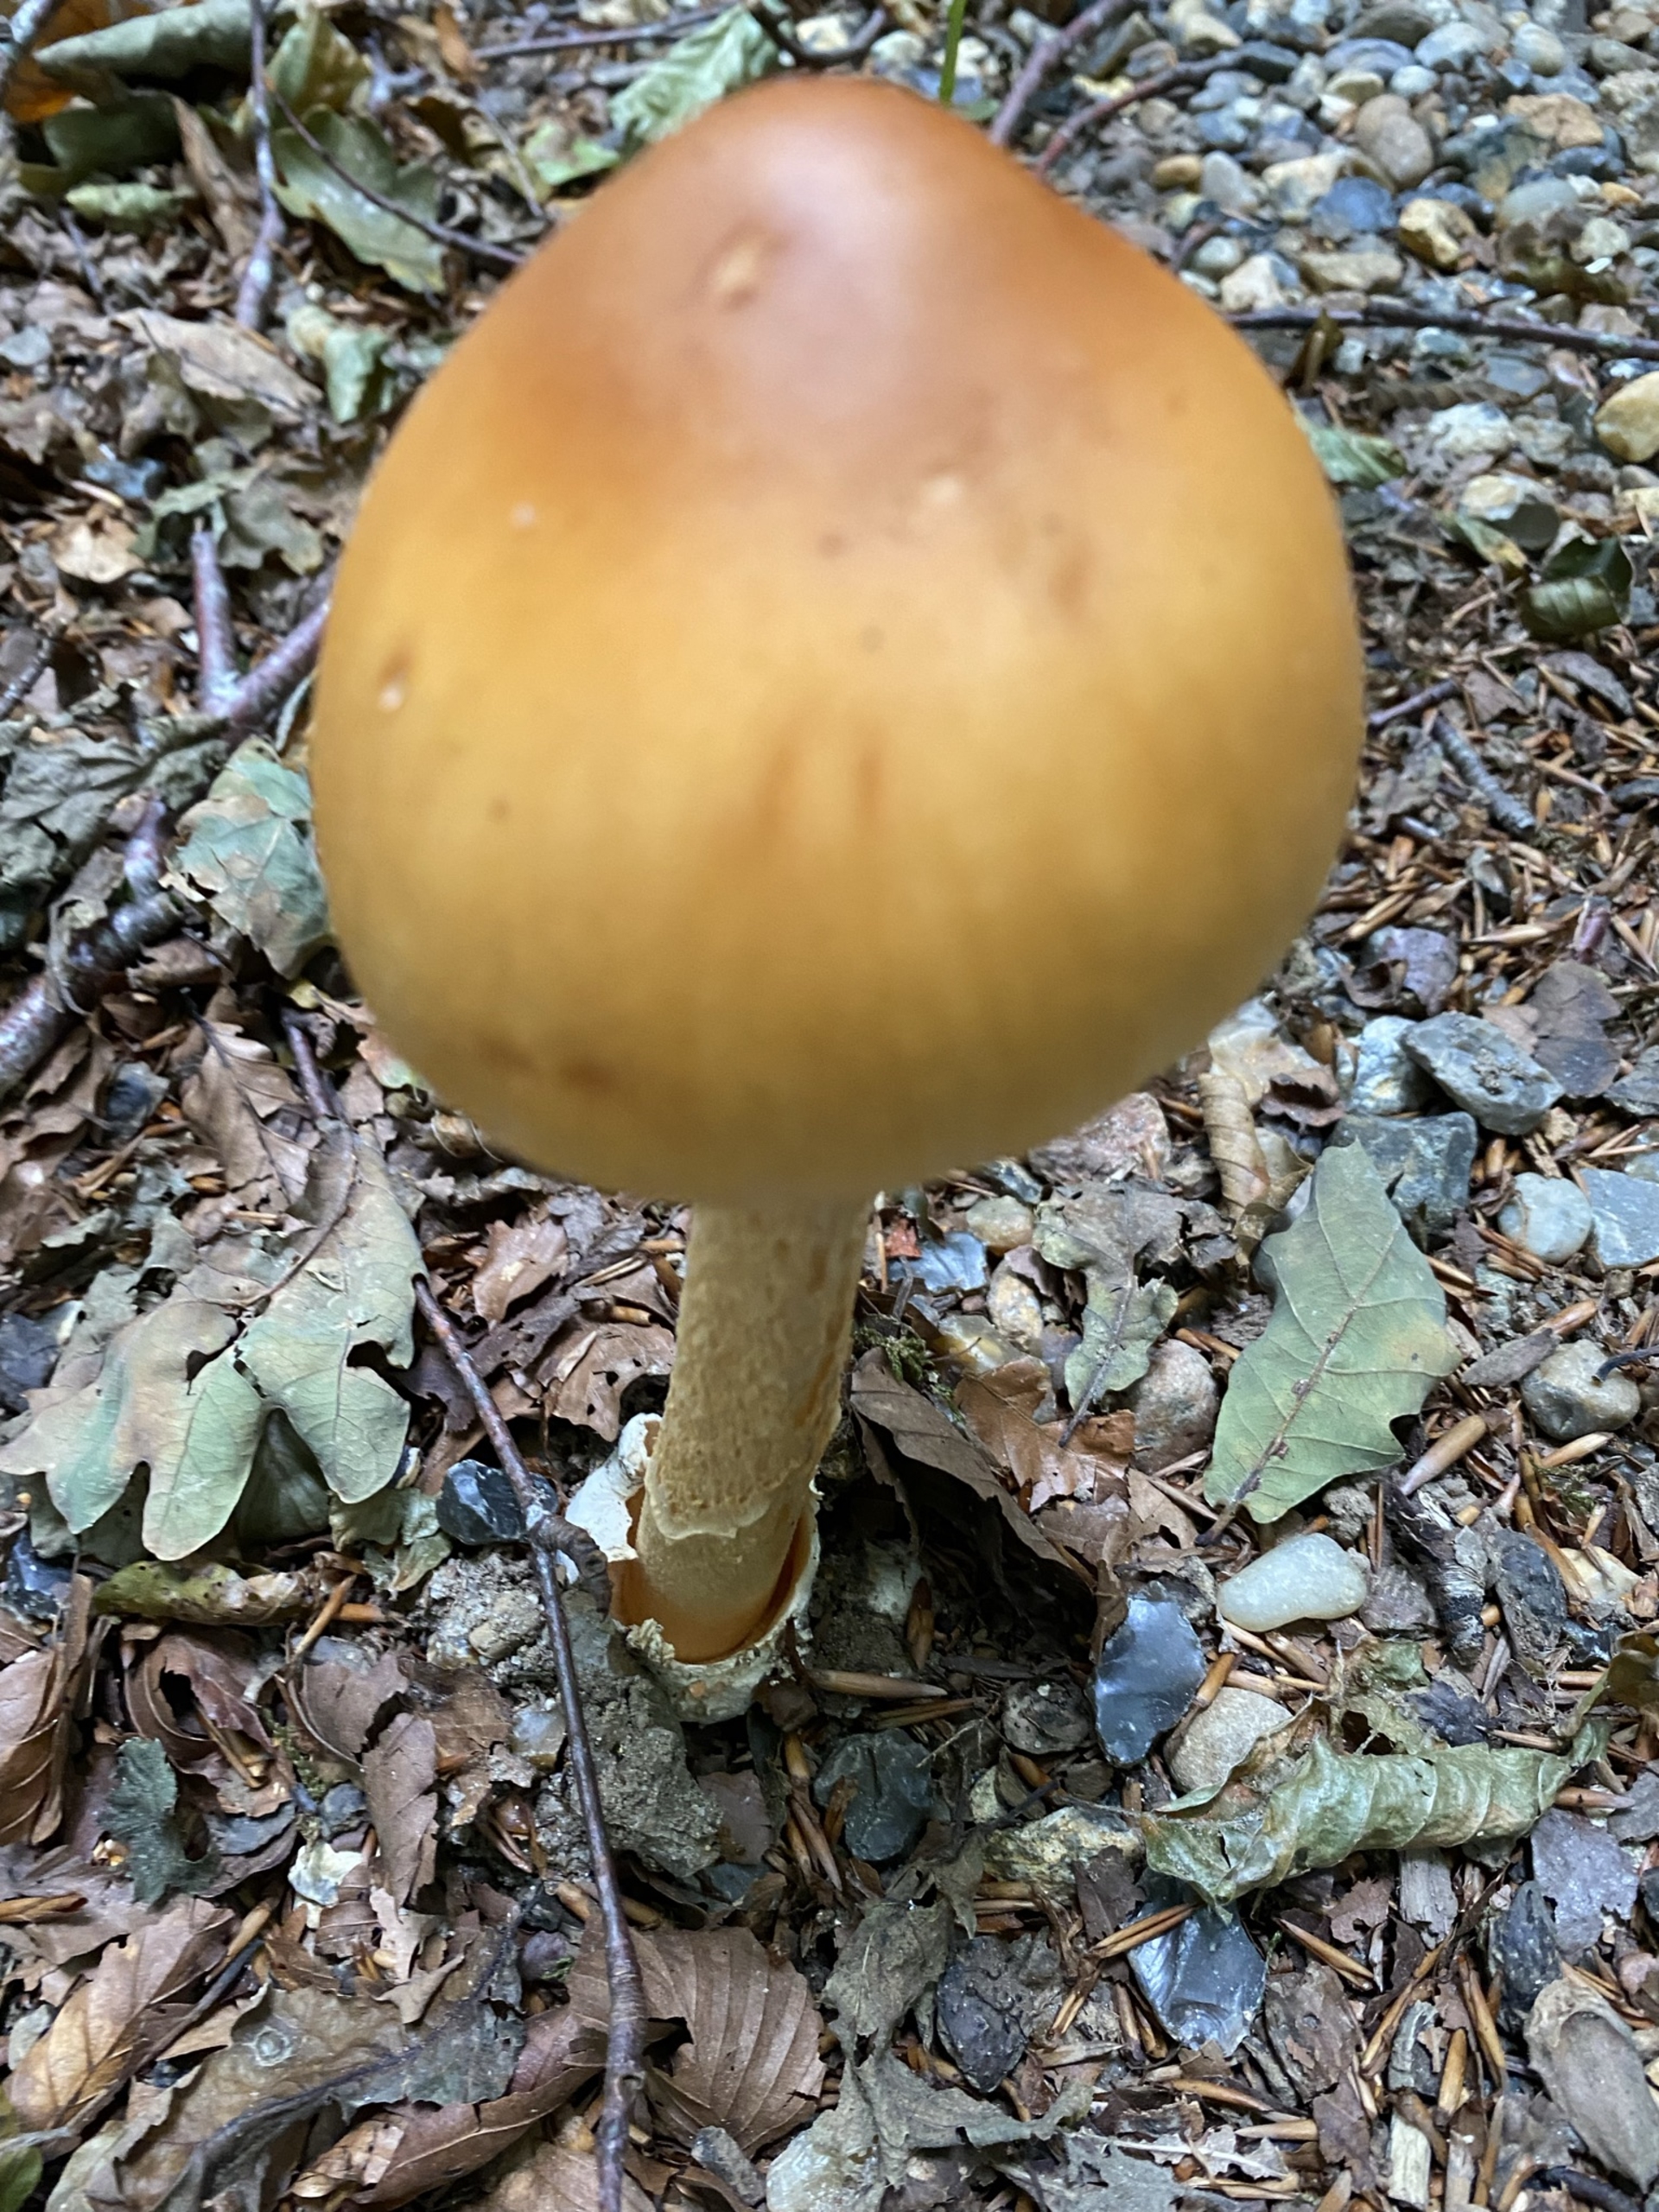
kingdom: Fungi
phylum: Basidiomycota
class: Agaricomycetes
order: Agaricales
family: Amanitaceae
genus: Amanita
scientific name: Amanita crocea
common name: Gylden kam-fluesvamp
